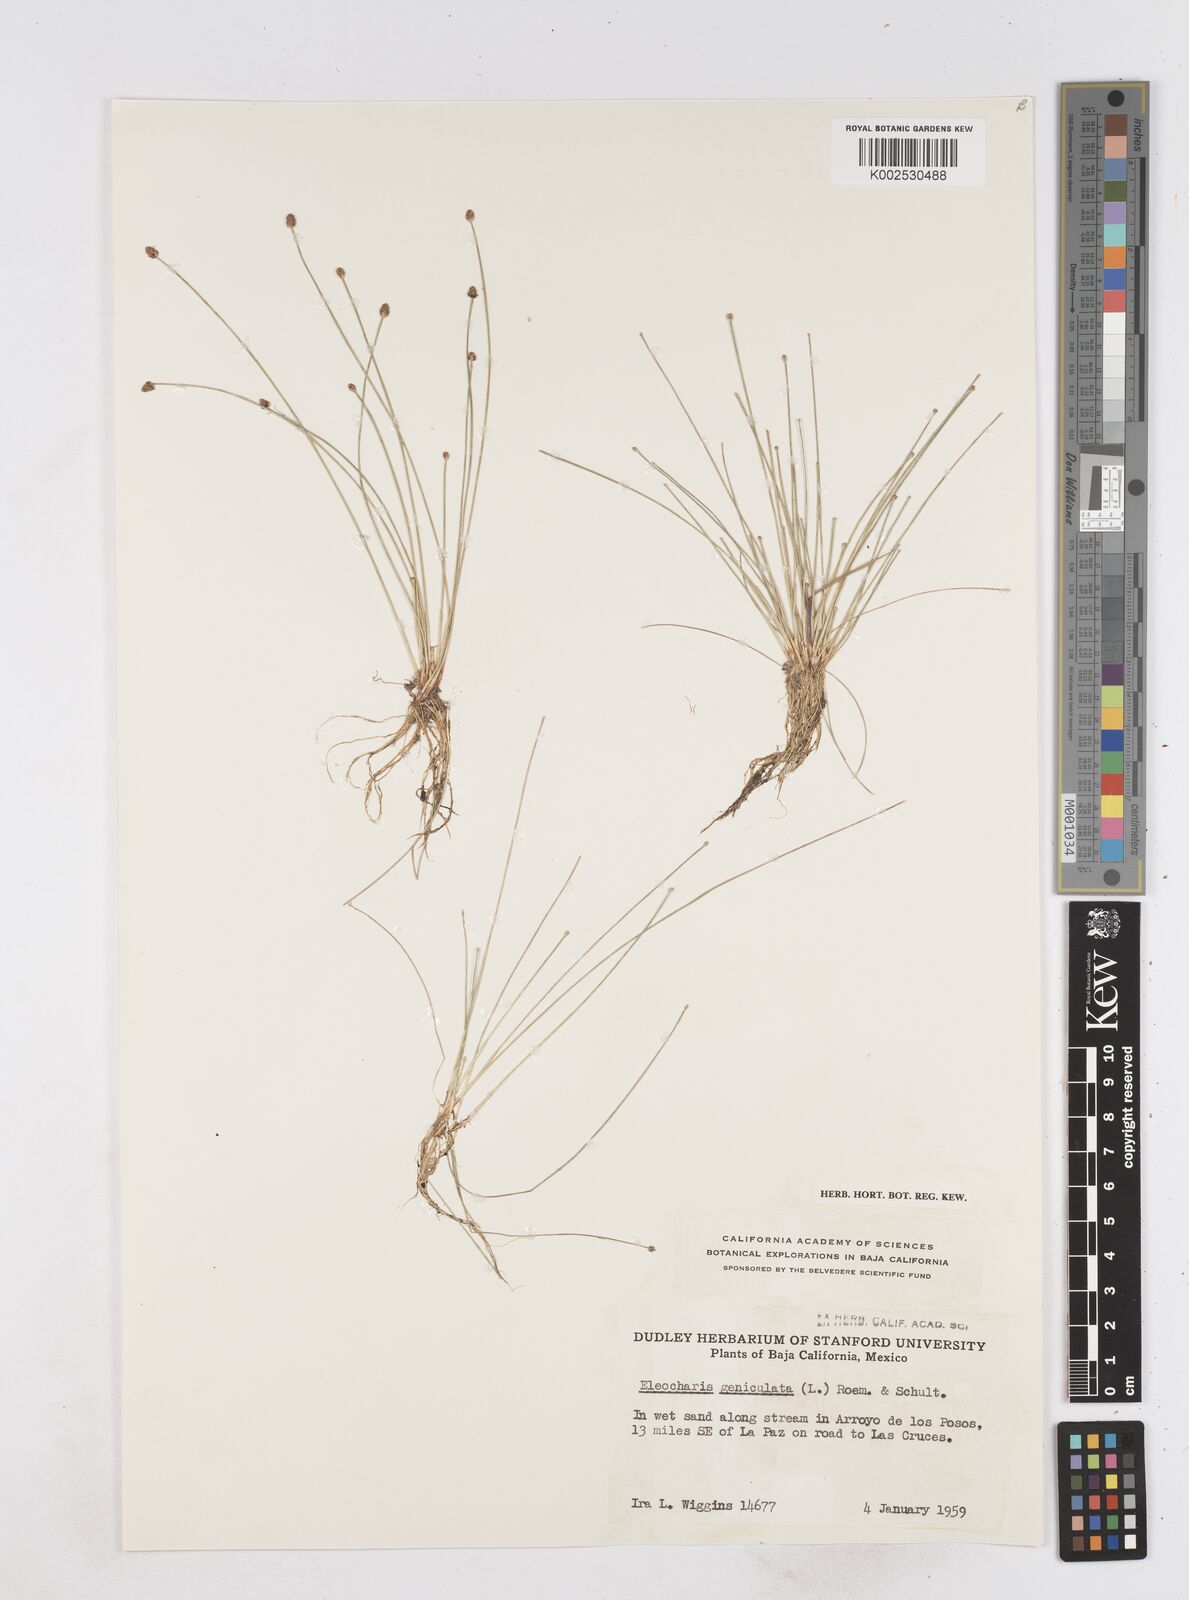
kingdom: Plantae
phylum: Tracheophyta
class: Liliopsida
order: Poales
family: Cyperaceae
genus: Eleocharis
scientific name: Eleocharis geniculata
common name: Canada spikesedge
